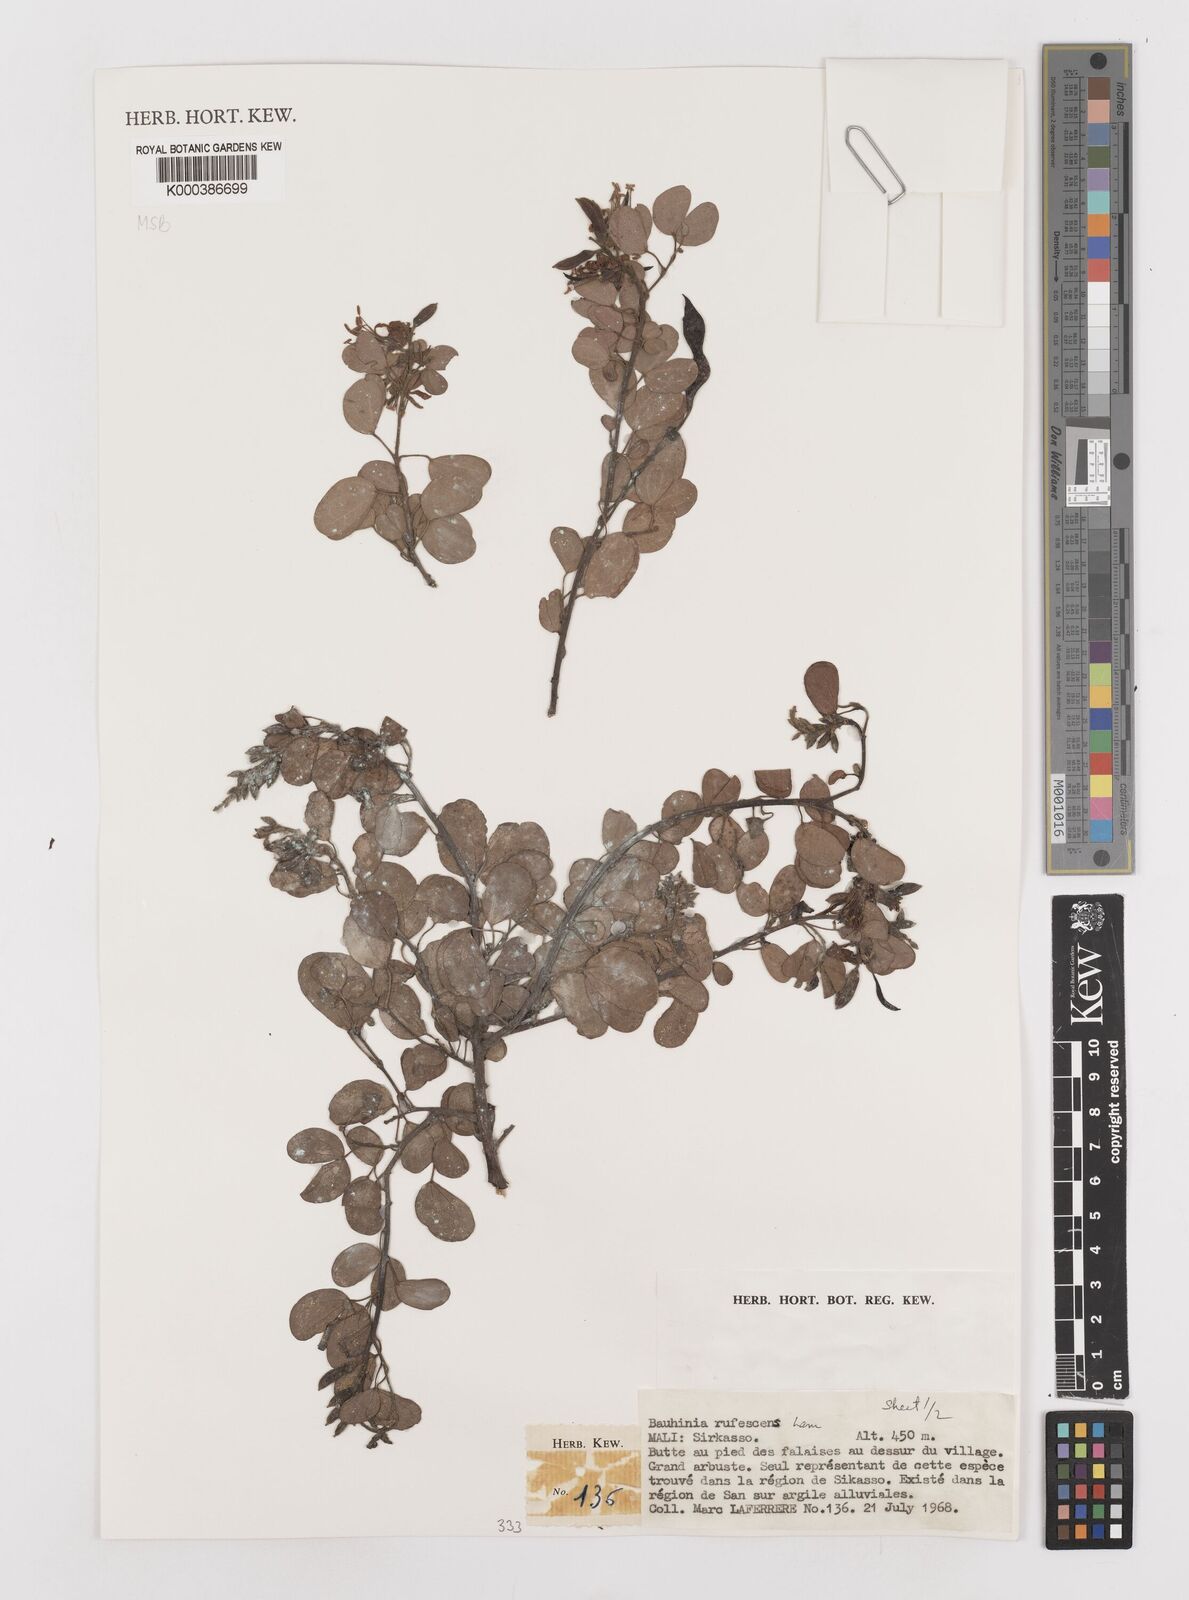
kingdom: Plantae
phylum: Tracheophyta
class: Magnoliopsida
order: Fabales
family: Fabaceae
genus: Bauhinia
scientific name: Bauhinia rufescens
